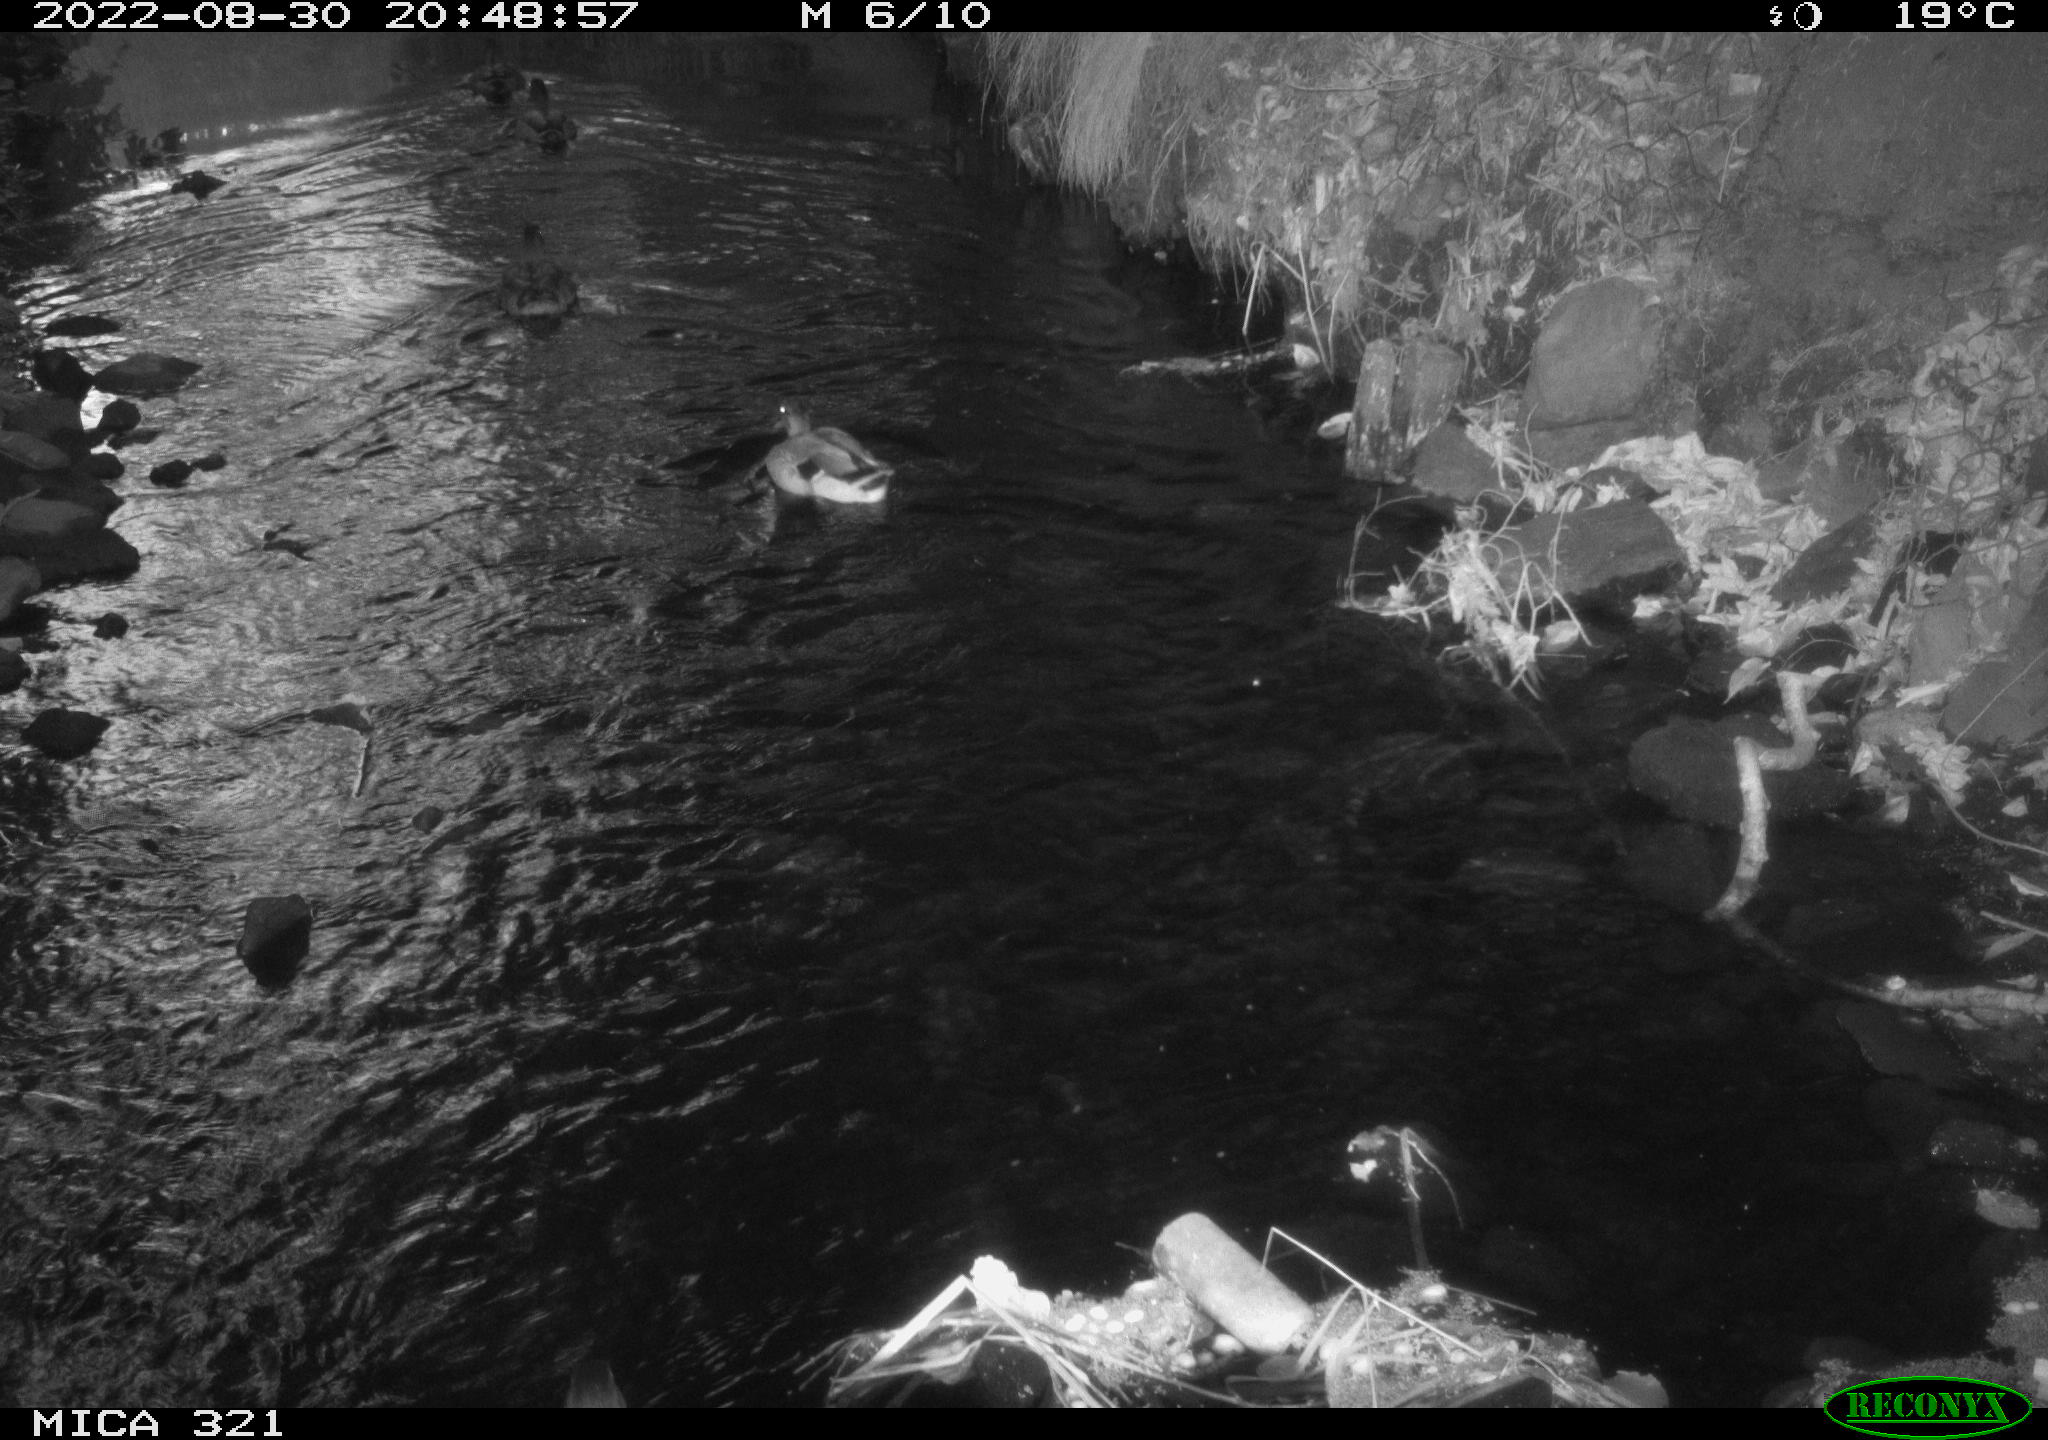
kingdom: Animalia
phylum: Chordata
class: Aves
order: Anseriformes
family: Anatidae
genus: Anas
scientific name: Anas platyrhynchos
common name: Mallard
